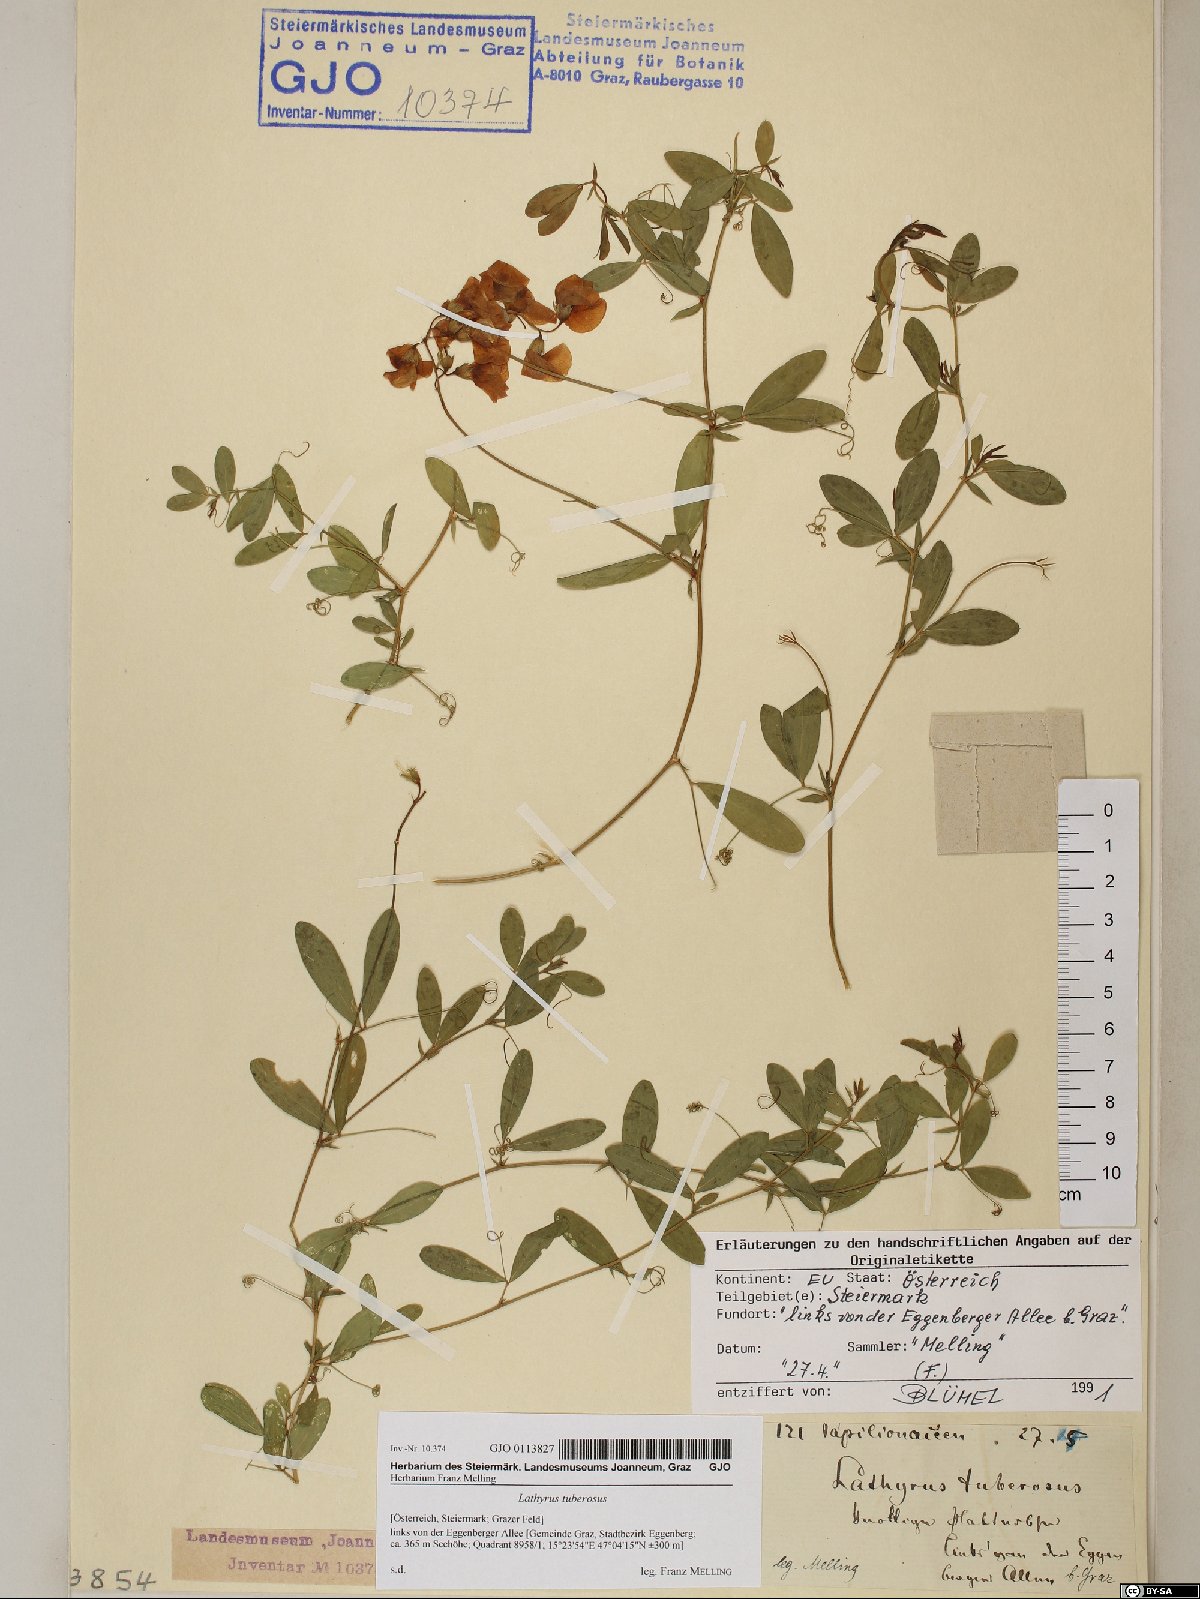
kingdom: Plantae
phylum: Tracheophyta
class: Magnoliopsida
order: Fabales
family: Fabaceae
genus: Lathyrus
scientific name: Lathyrus tuberosus
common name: Tuberous pea
